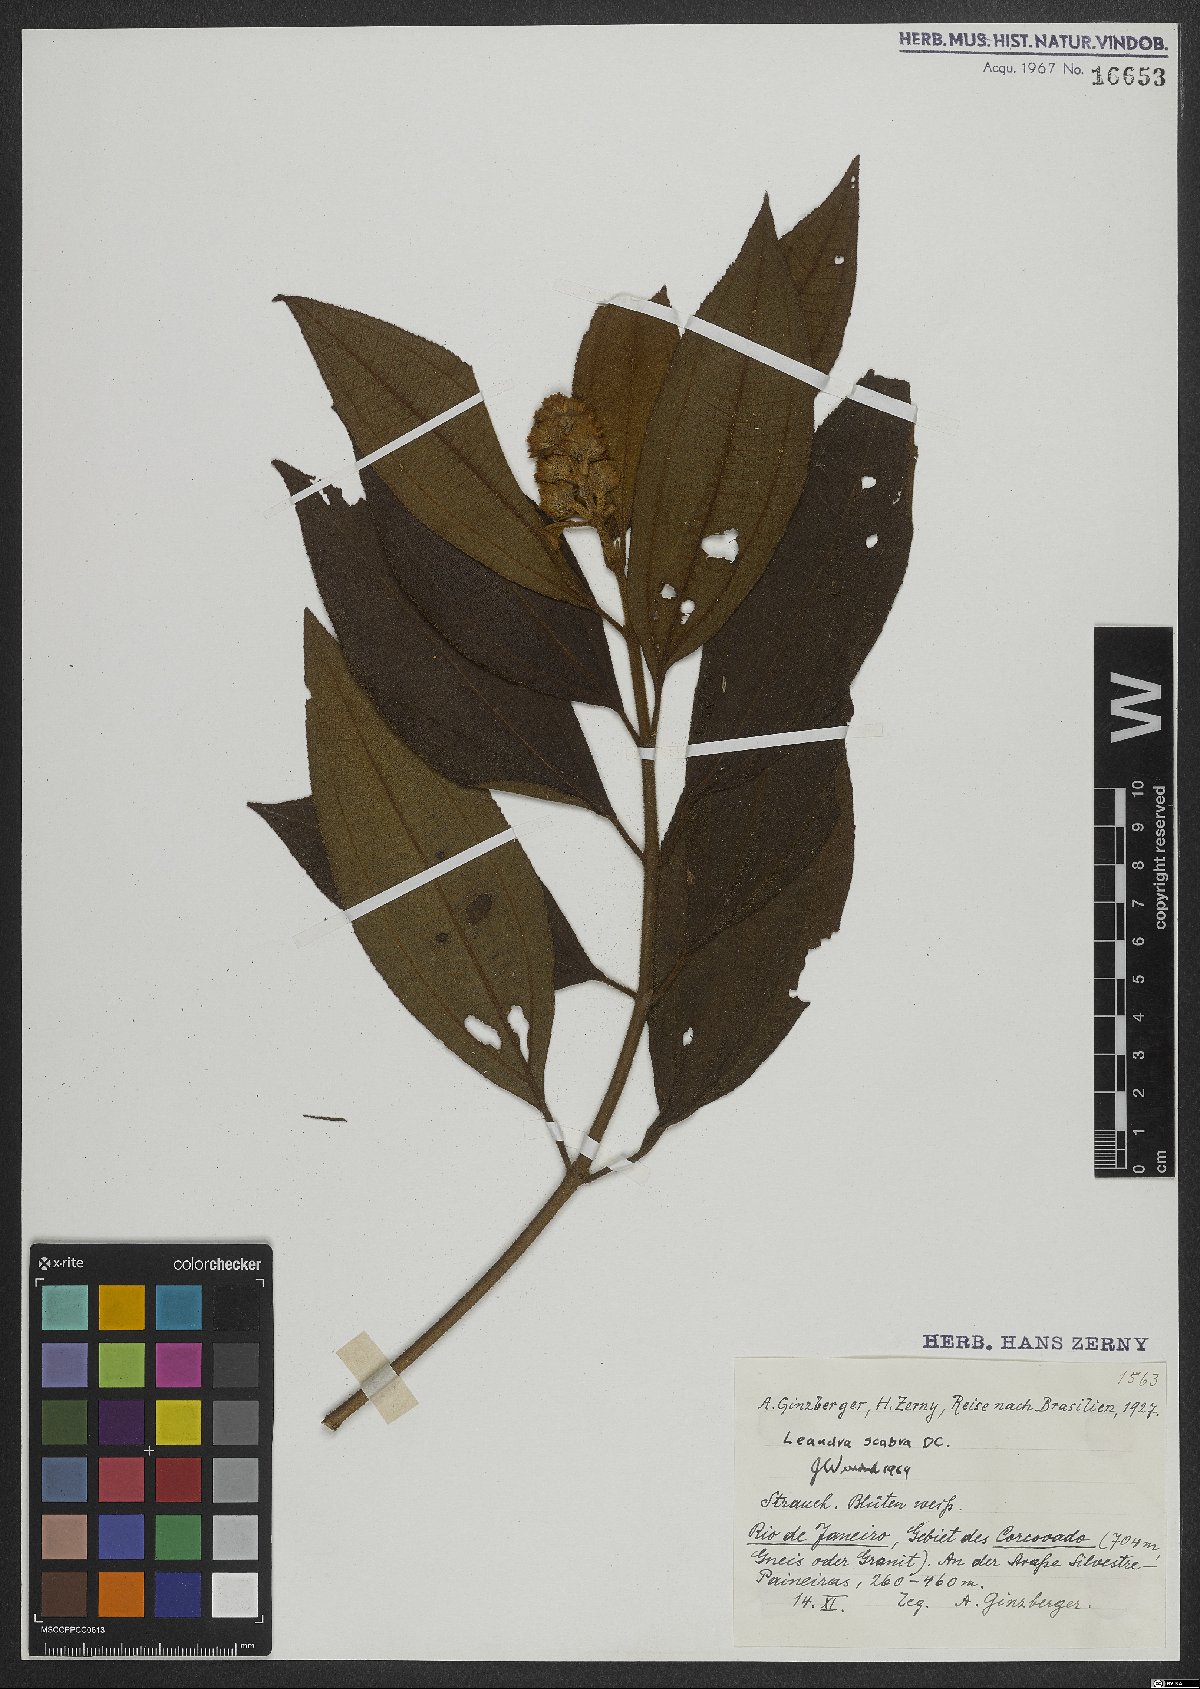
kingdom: Plantae
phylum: Tracheophyta
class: Magnoliopsida
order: Myrtales
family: Melastomataceae
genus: Miconia
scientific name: Miconia melastomoides
